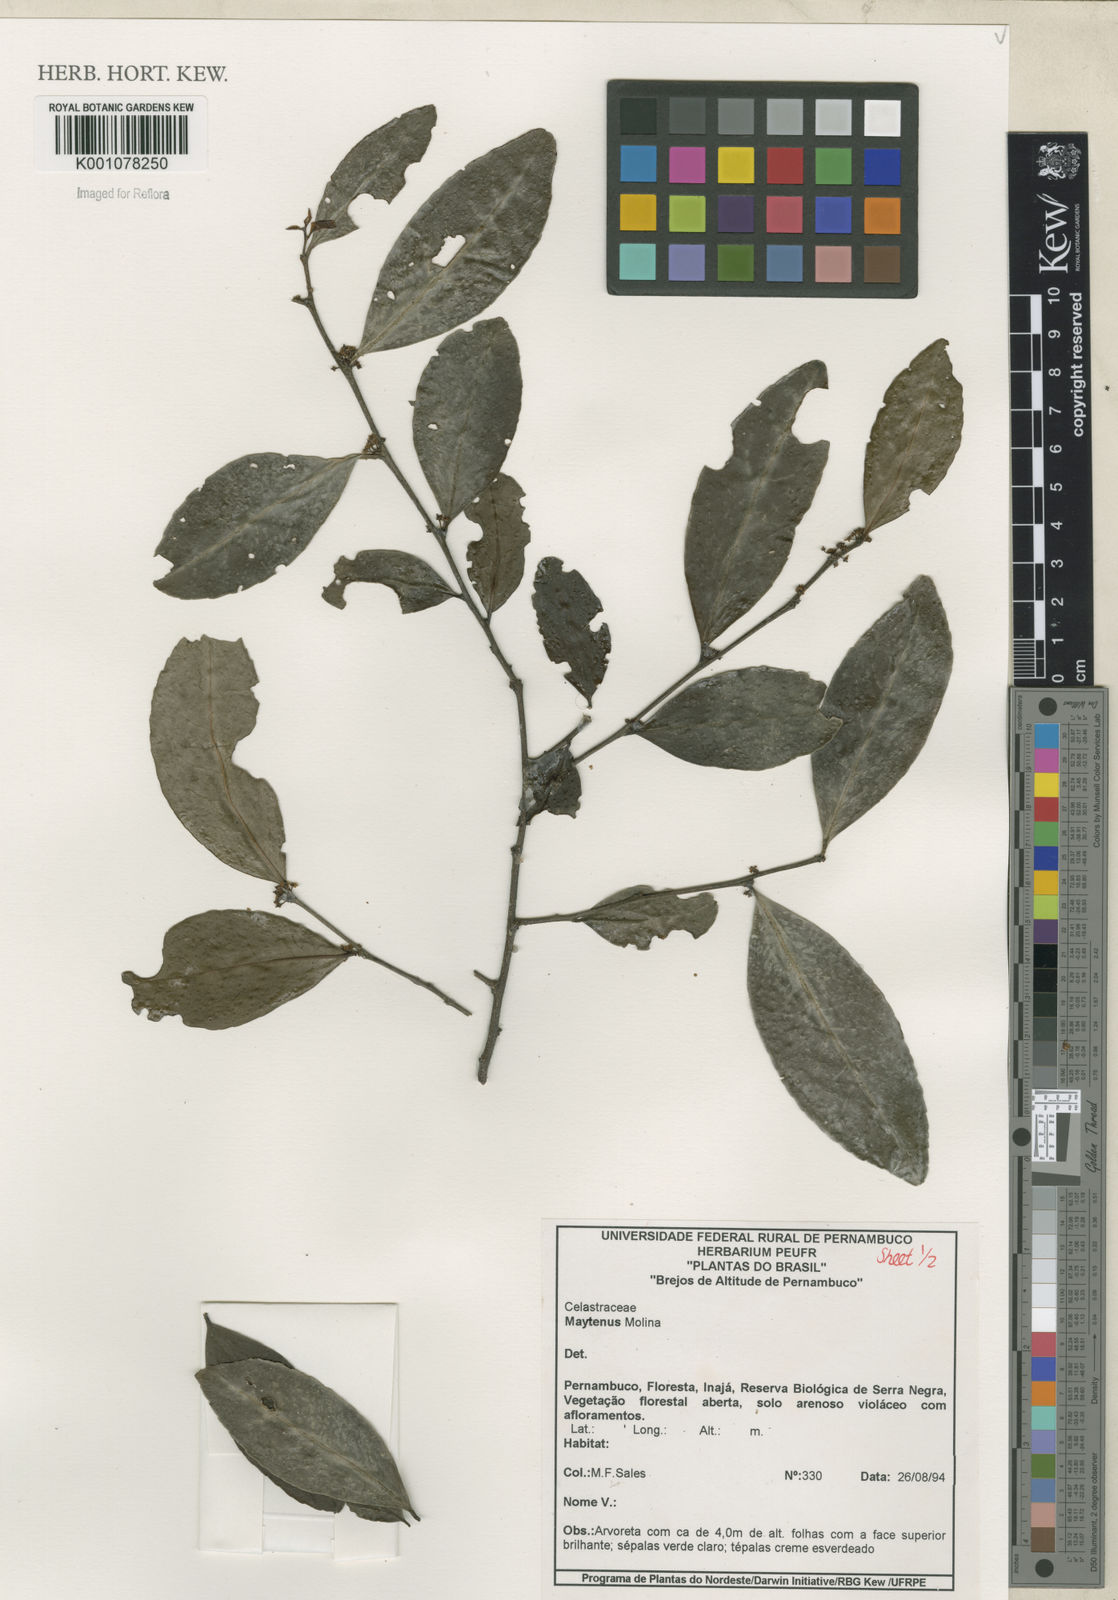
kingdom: Plantae
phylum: Tracheophyta
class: Magnoliopsida
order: Celastrales
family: Celastraceae
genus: Maytenus
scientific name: Maytenus
